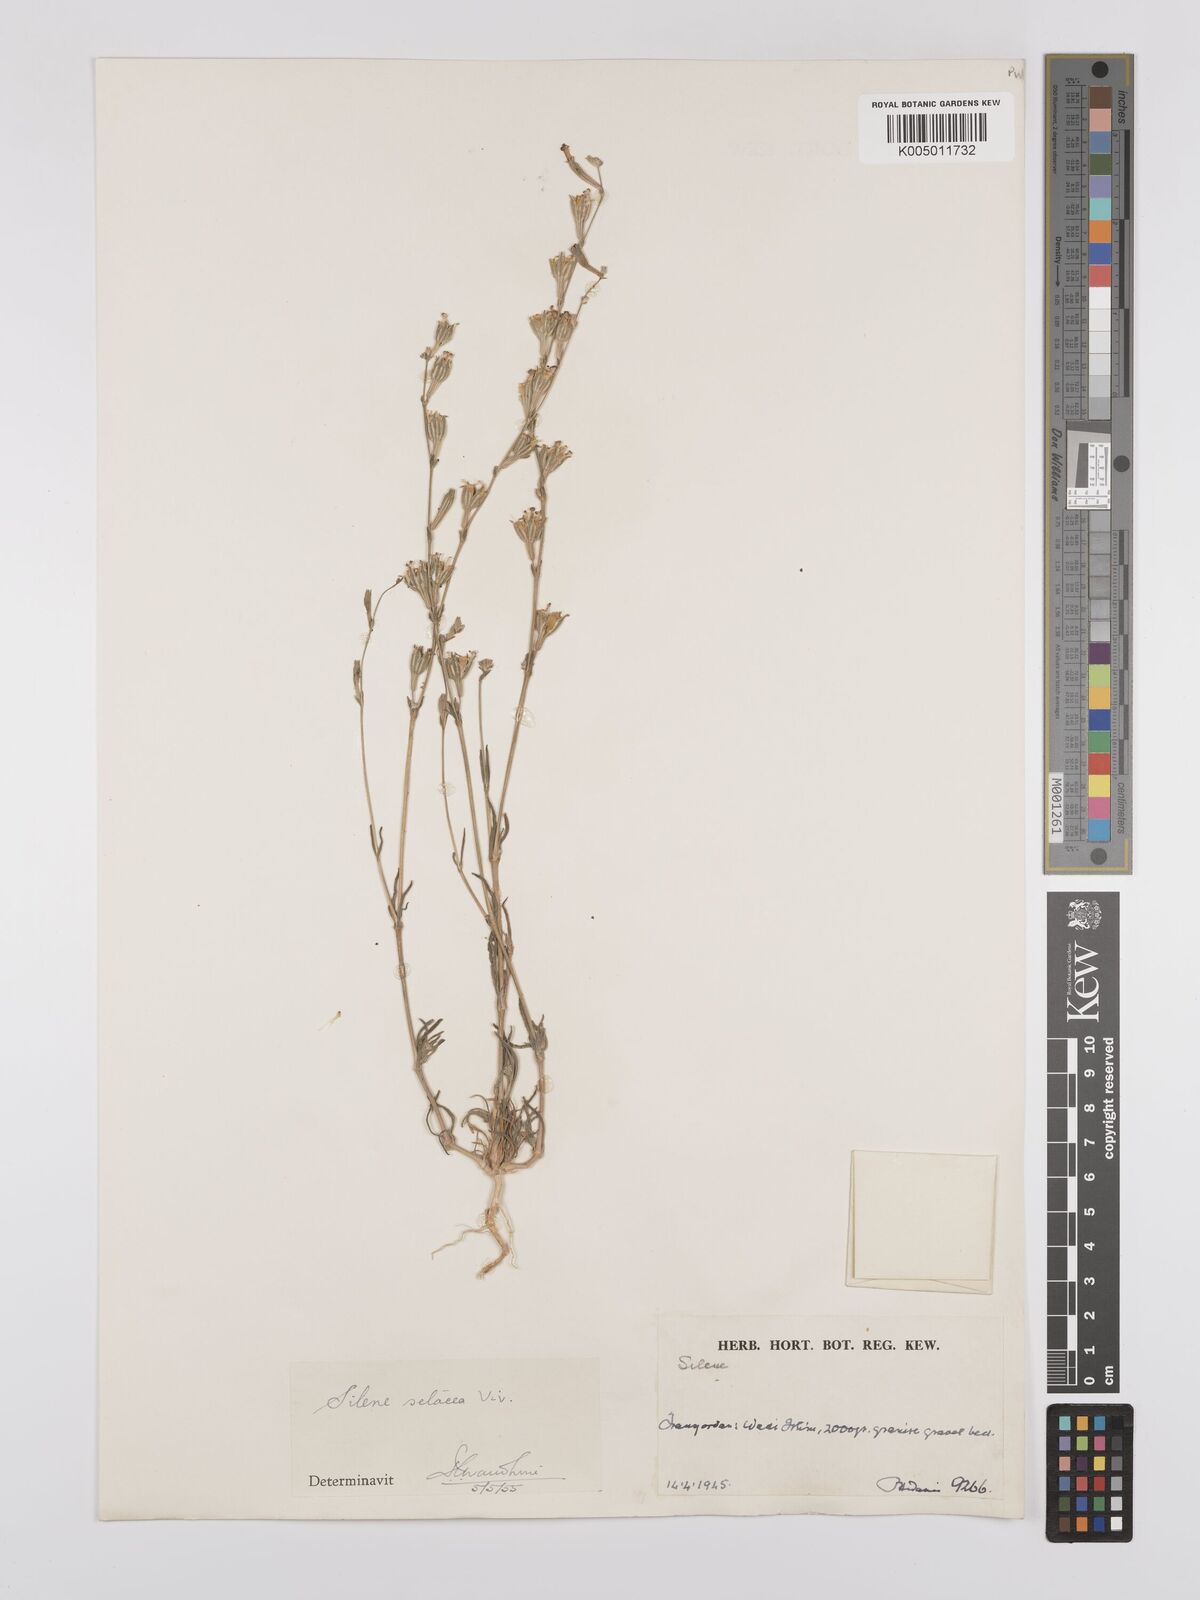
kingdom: Plantae
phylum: Tracheophyta
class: Magnoliopsida
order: Caryophyllales
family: Caryophyllaceae
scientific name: Caryophyllaceae
